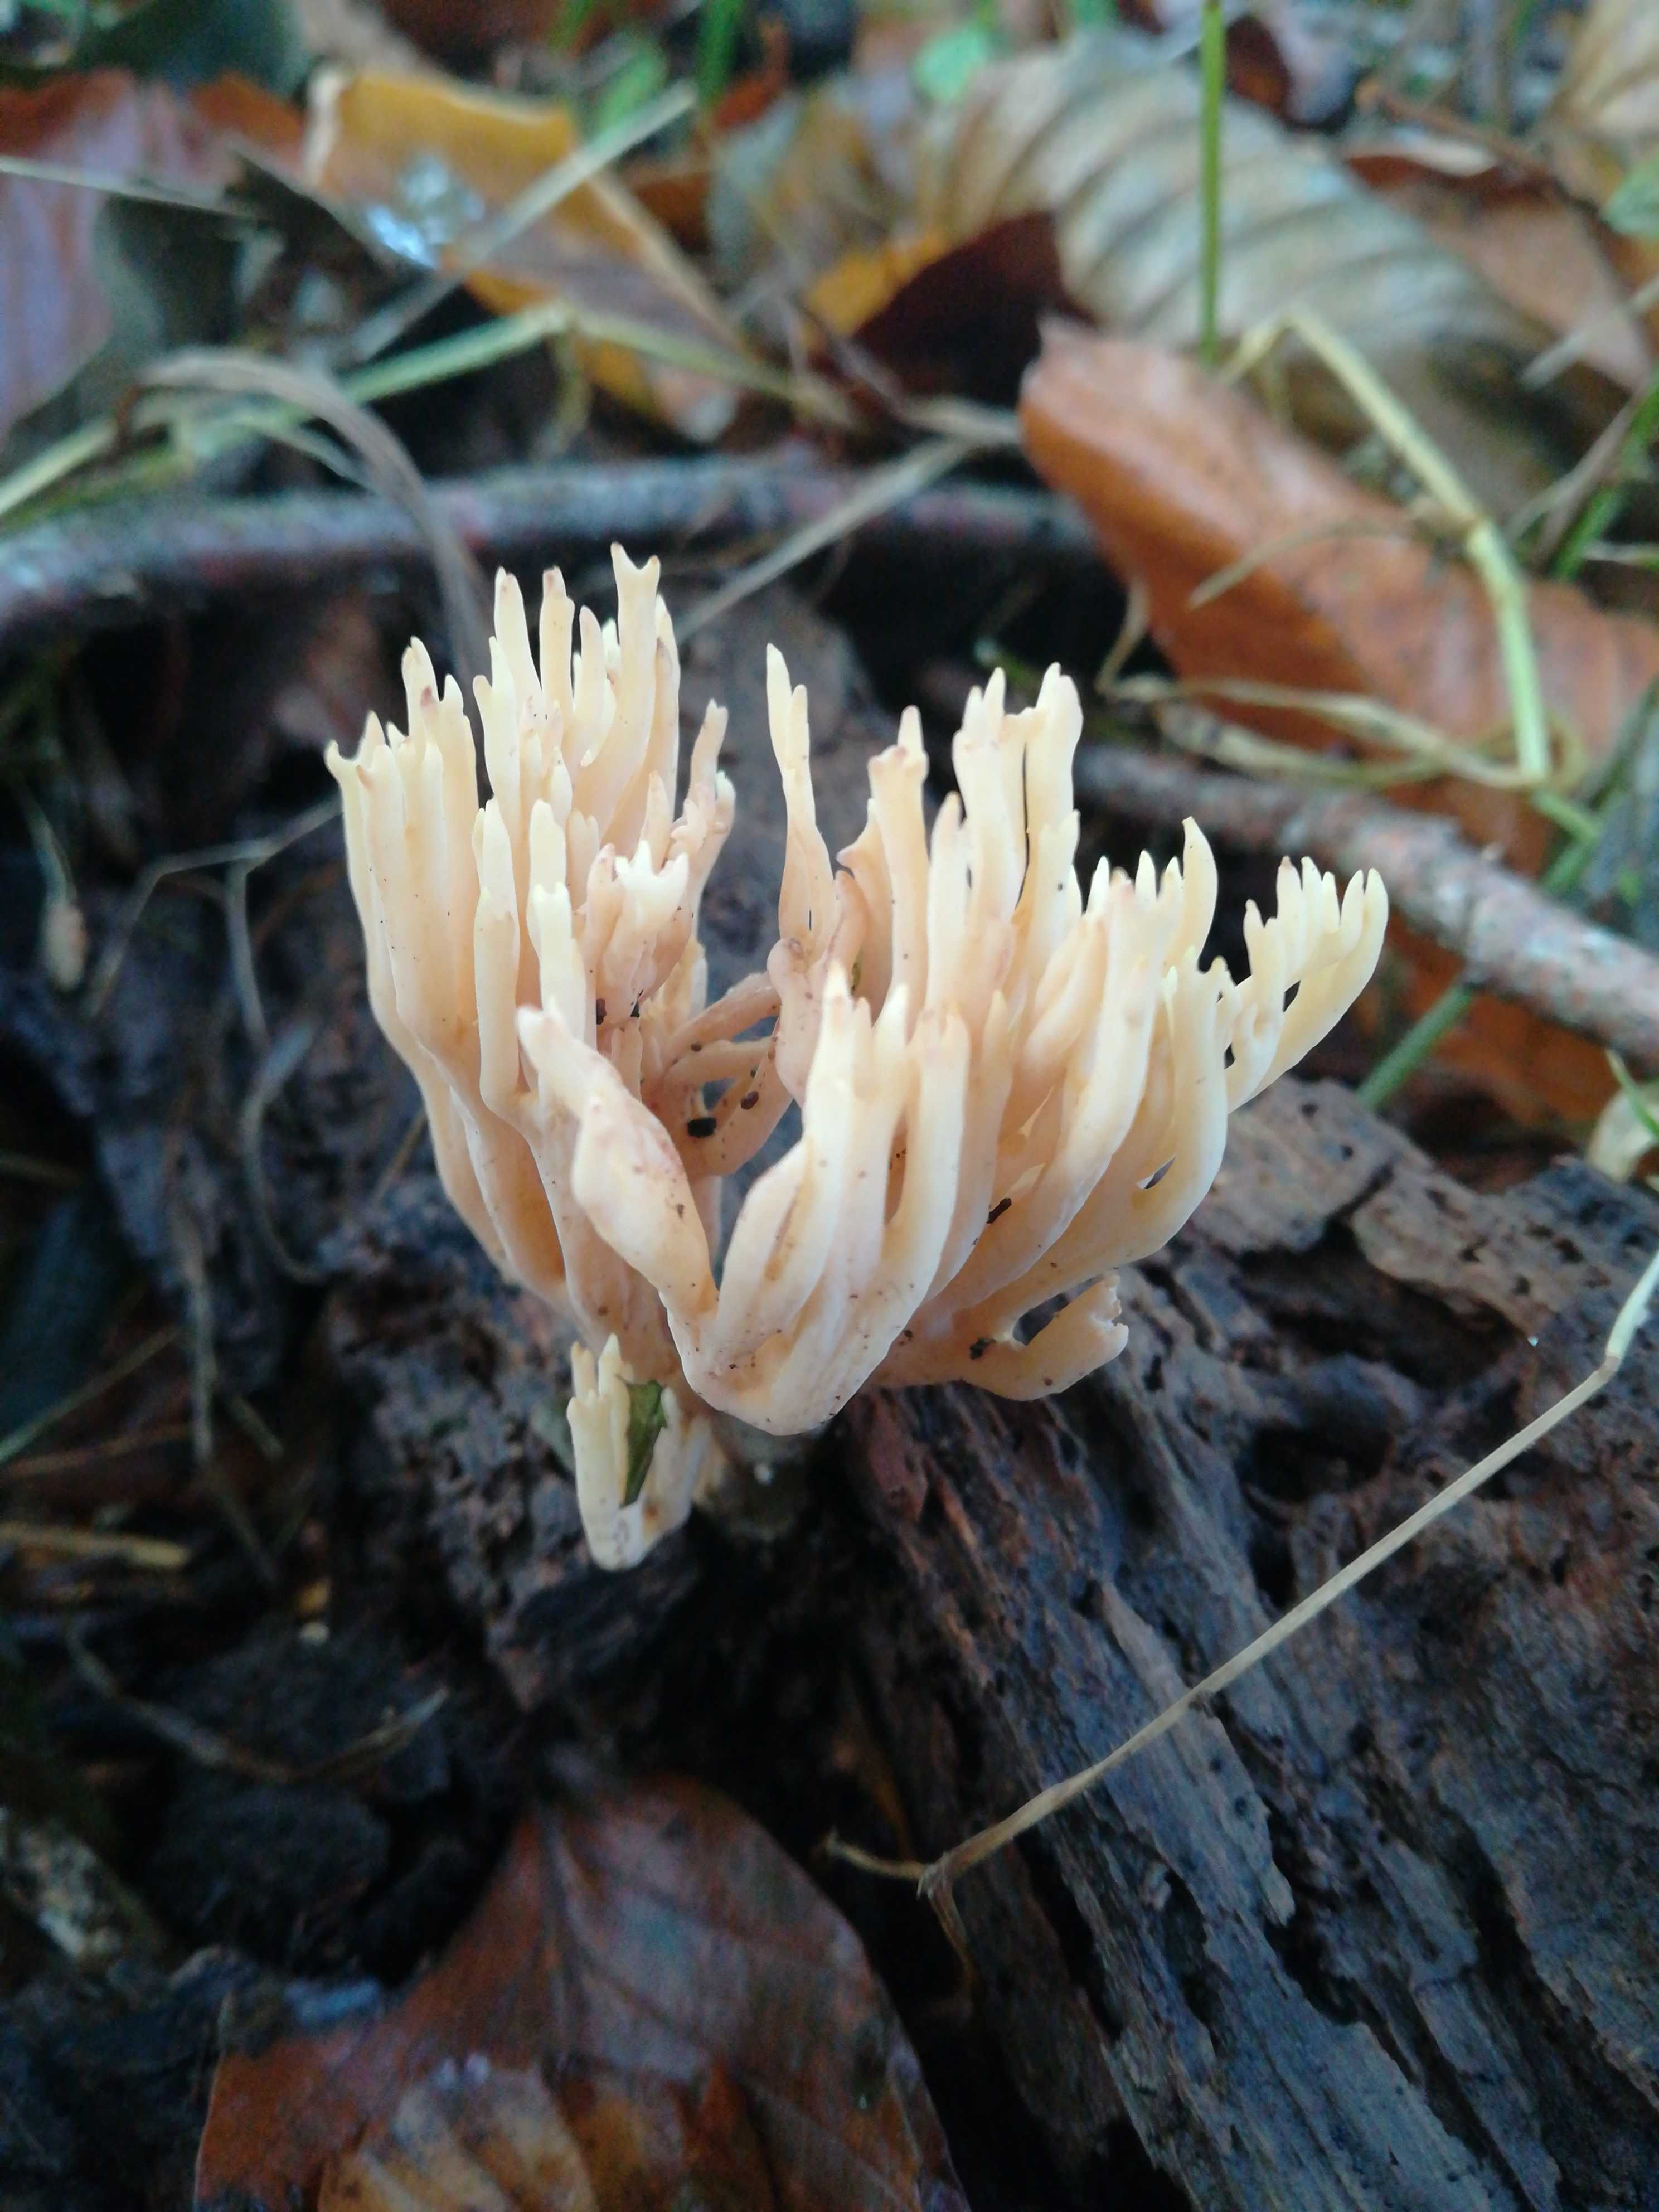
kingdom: Fungi
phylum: Basidiomycota
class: Agaricomycetes
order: Gomphales
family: Gomphaceae
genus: Ramaria
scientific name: Ramaria stricta
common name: rank koralsvamp
